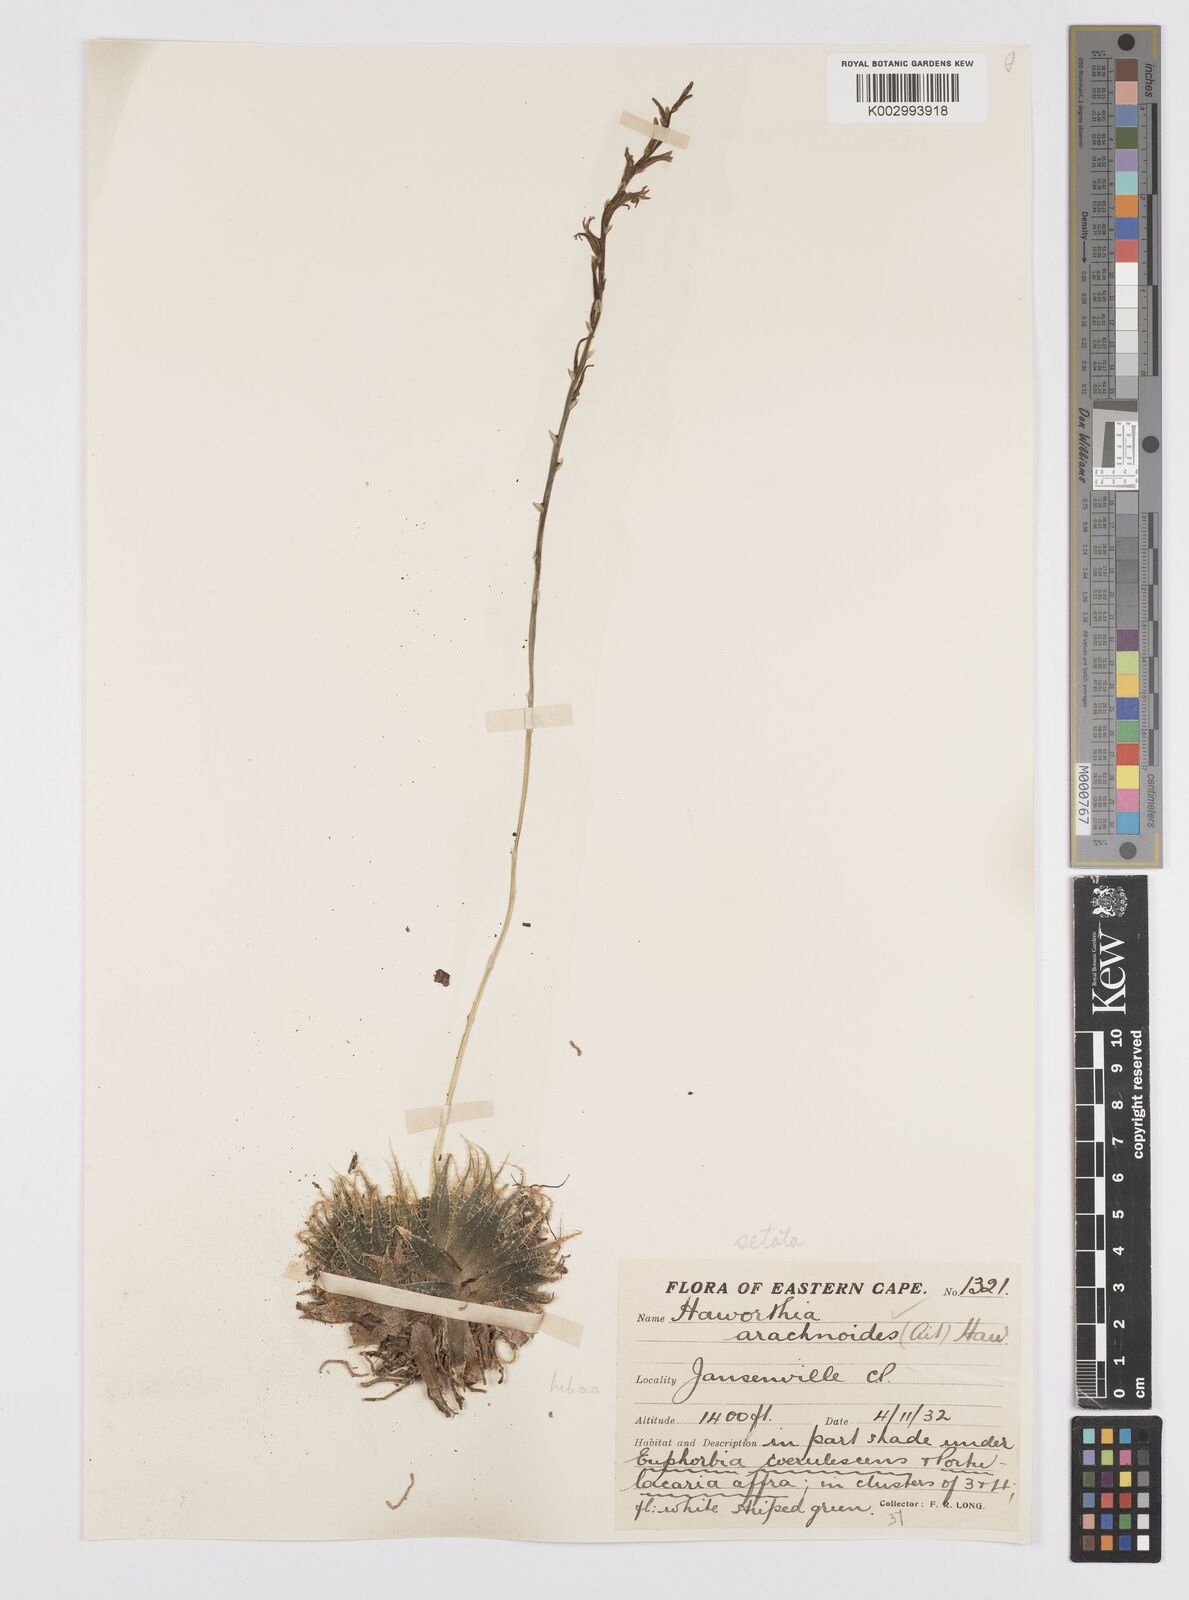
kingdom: Plantae
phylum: Tracheophyta
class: Liliopsida
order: Asparagales
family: Asphodelaceae
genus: Haworthia
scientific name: Haworthia arachnoidea
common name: Cobweb-aloe
